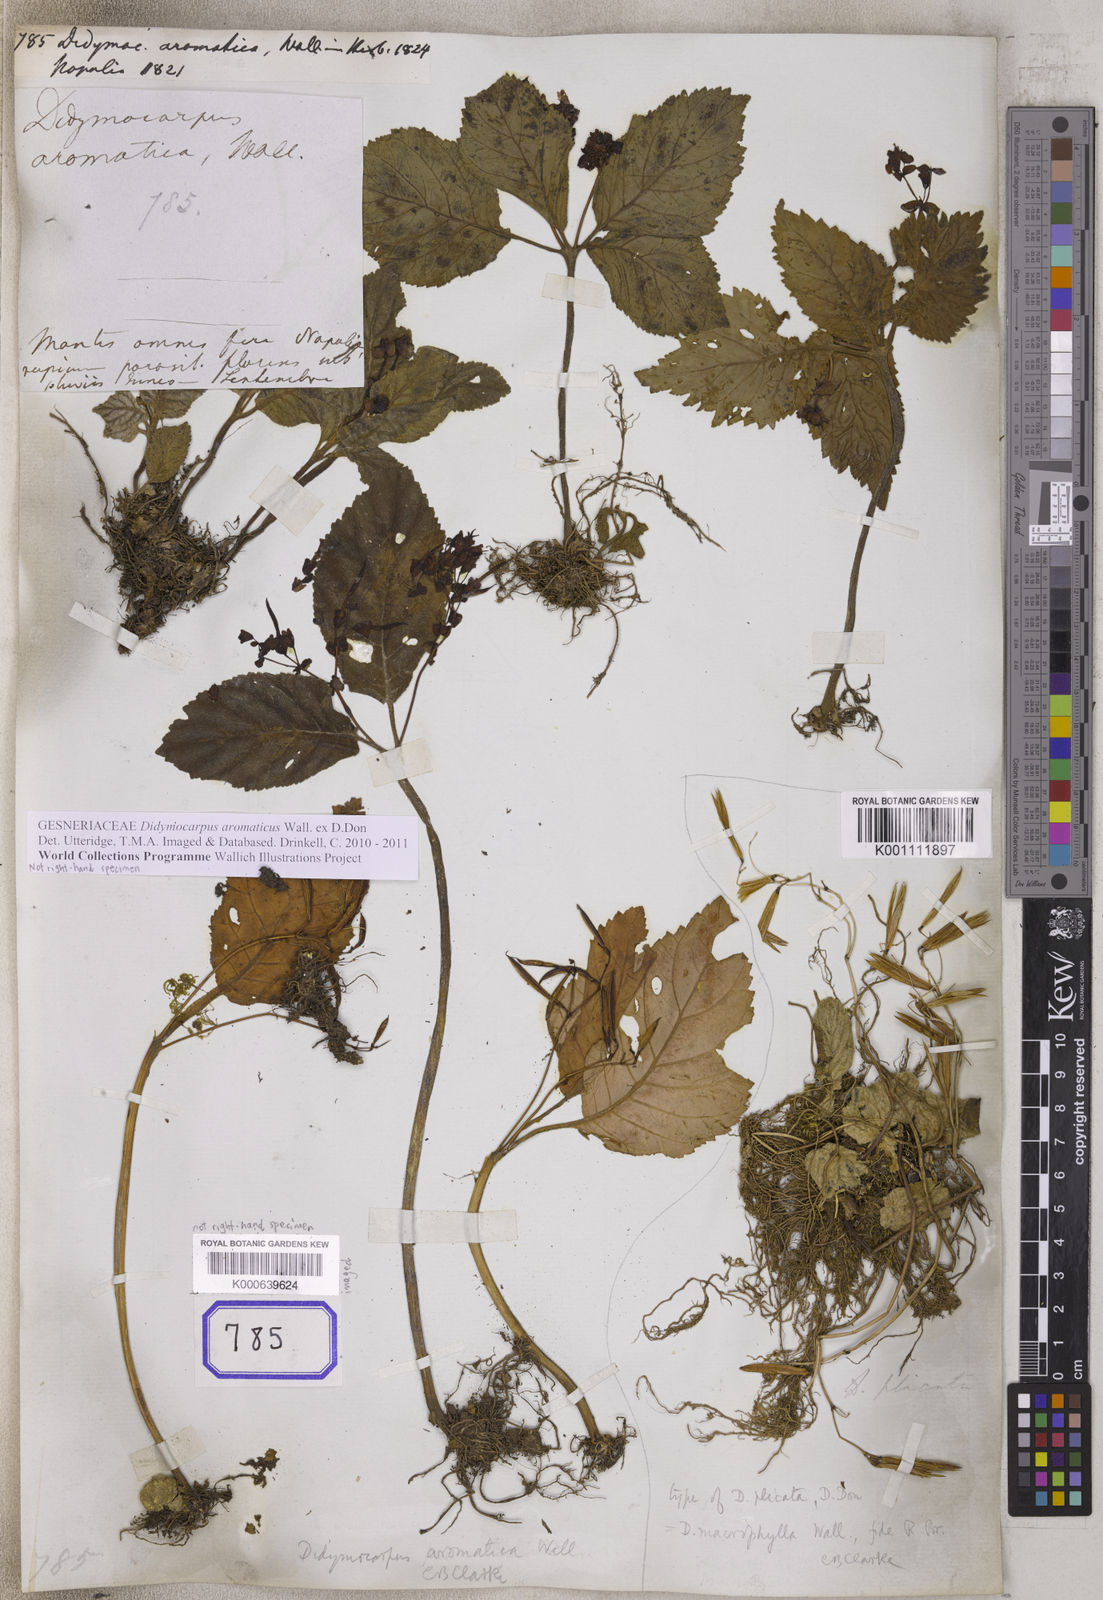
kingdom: Plantae
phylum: Tracheophyta
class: Magnoliopsida
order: Lamiales
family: Gesneriaceae
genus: Didymocarpus
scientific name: Didymocarpus
